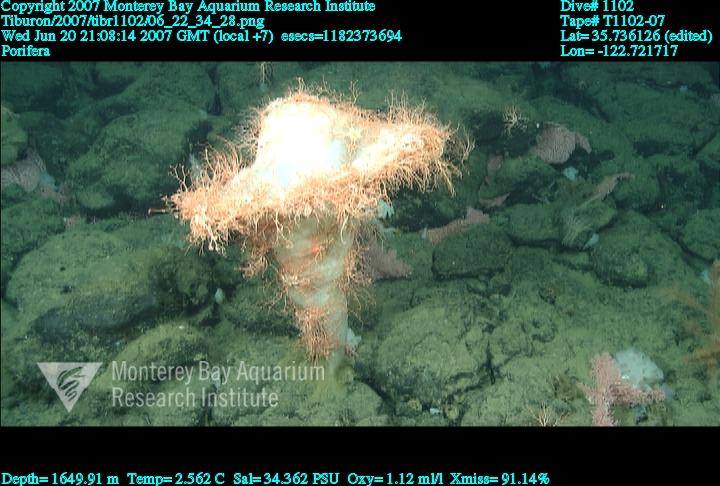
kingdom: Animalia
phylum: Porifera
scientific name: Porifera
